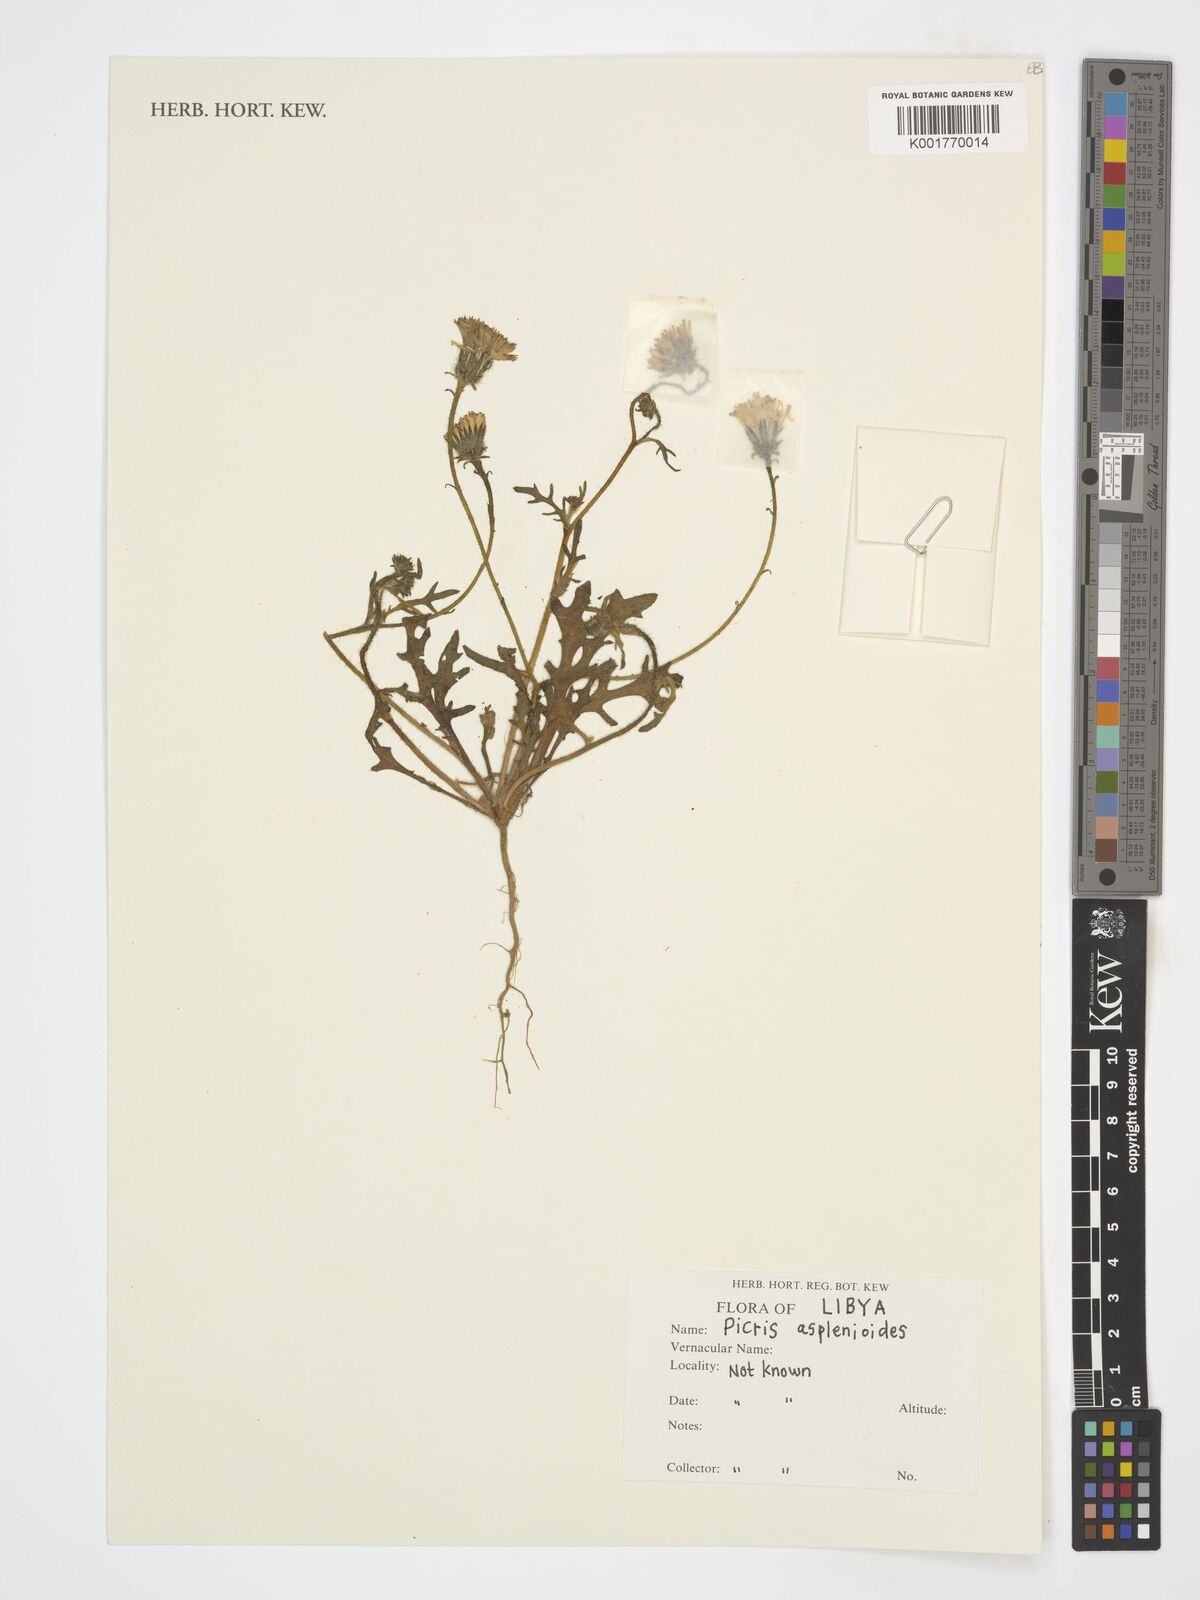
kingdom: Plantae
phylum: Tracheophyta
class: Magnoliopsida
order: Asterales
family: Asteraceae
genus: Picris
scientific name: Picris asplenioides
